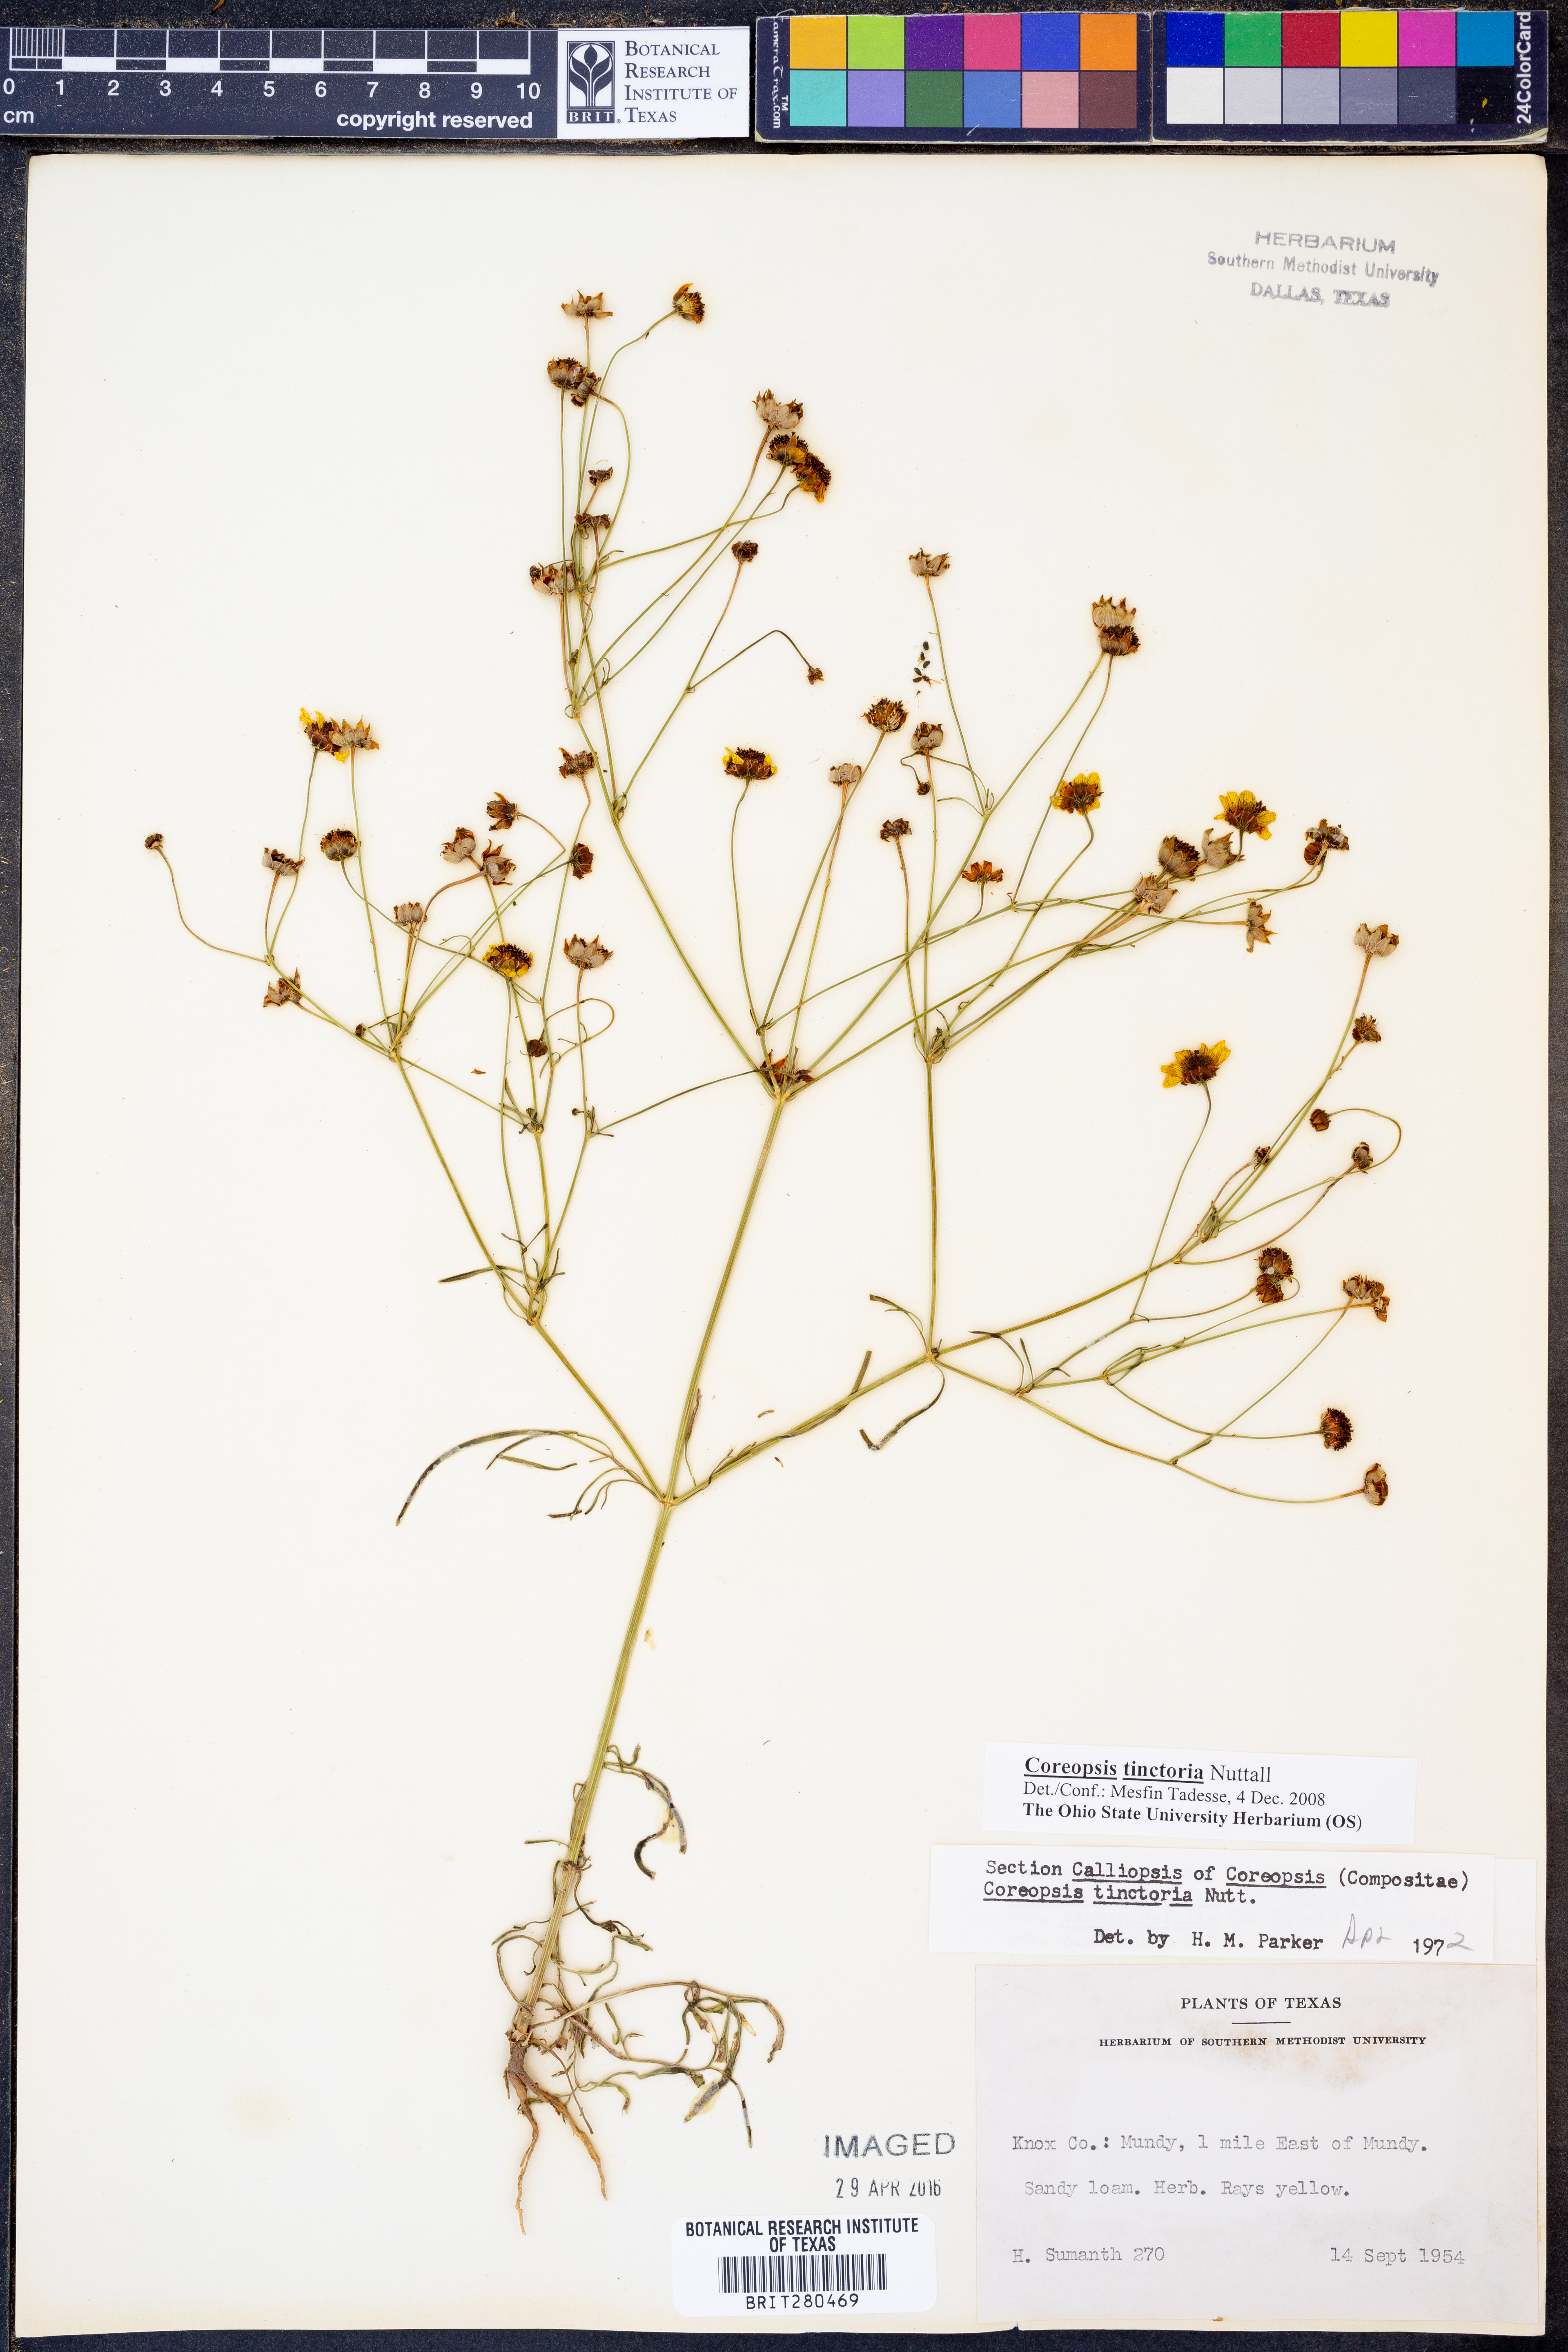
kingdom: Plantae
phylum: Tracheophyta
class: Magnoliopsida
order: Asterales
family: Asteraceae
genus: Coreopsis
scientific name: Coreopsis tinctoria
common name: Garden tickseed
